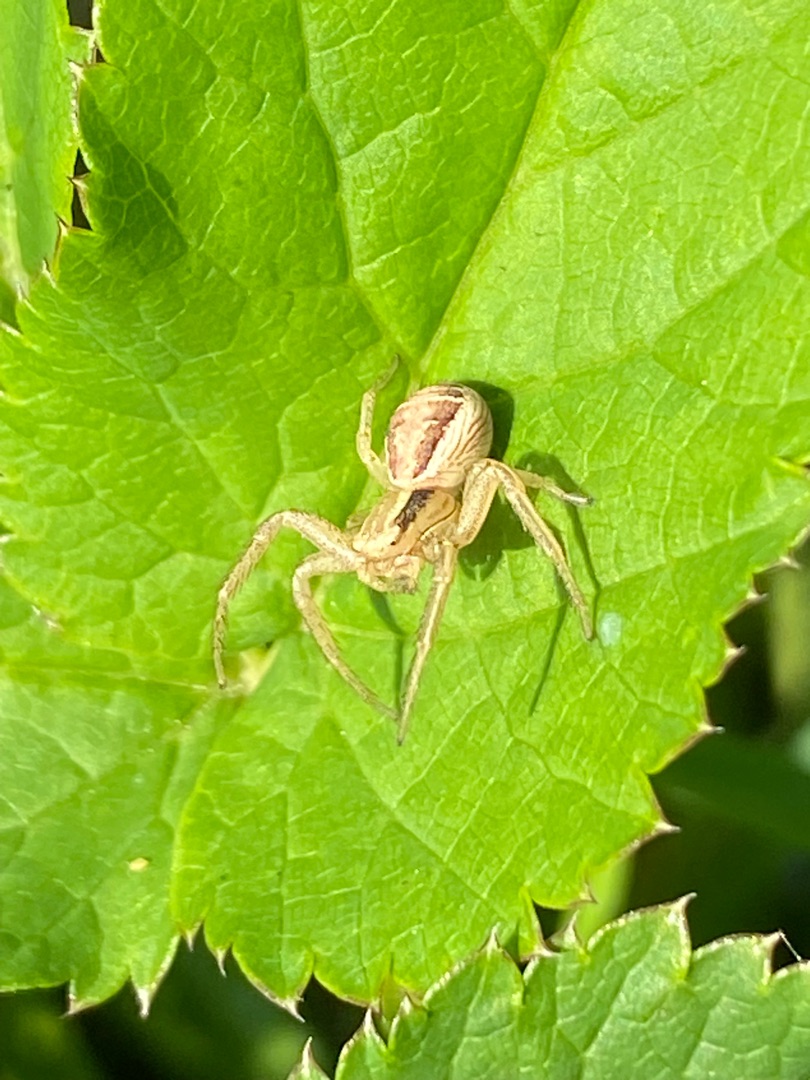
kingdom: Animalia
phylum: Arthropoda
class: Arachnida
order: Araneae
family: Thomisidae
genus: Xysticus
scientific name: Xysticus ulmi
